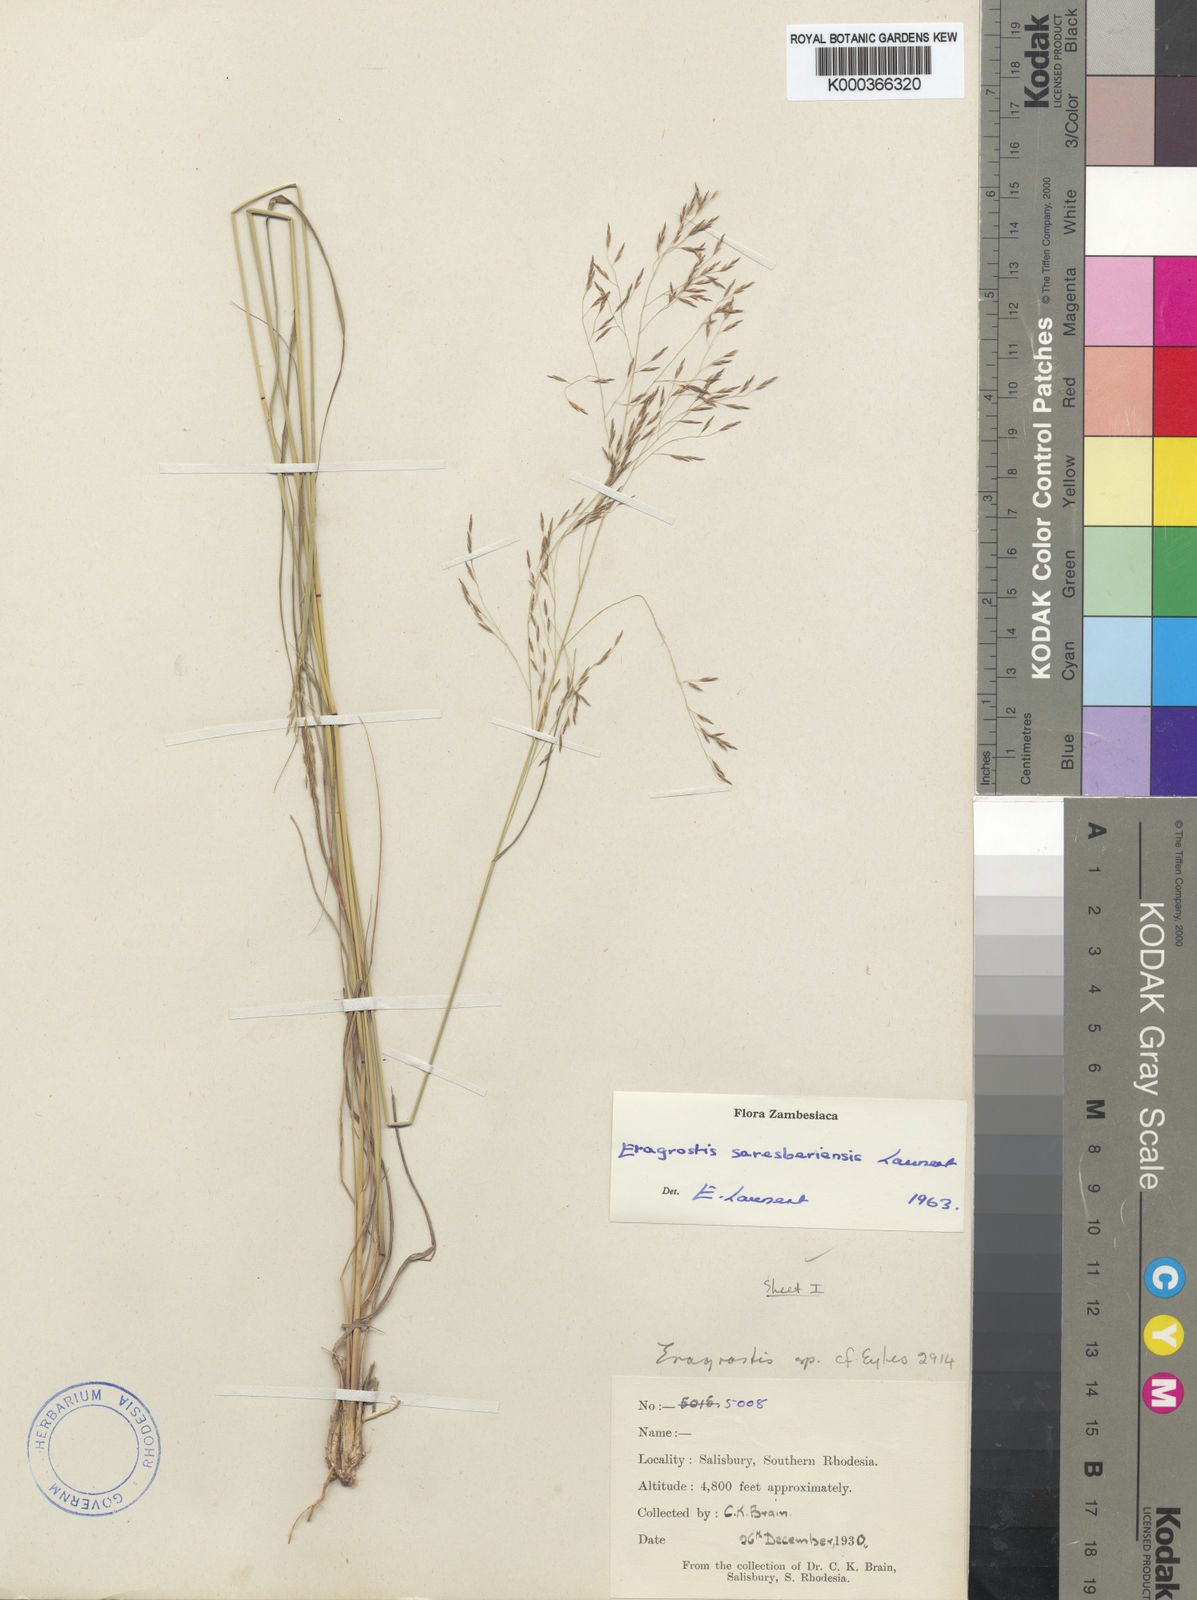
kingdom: Plantae
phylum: Tracheophyta
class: Liliopsida
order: Poales
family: Poaceae
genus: Eragrostis
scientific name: Eragrostis saresberiensis
